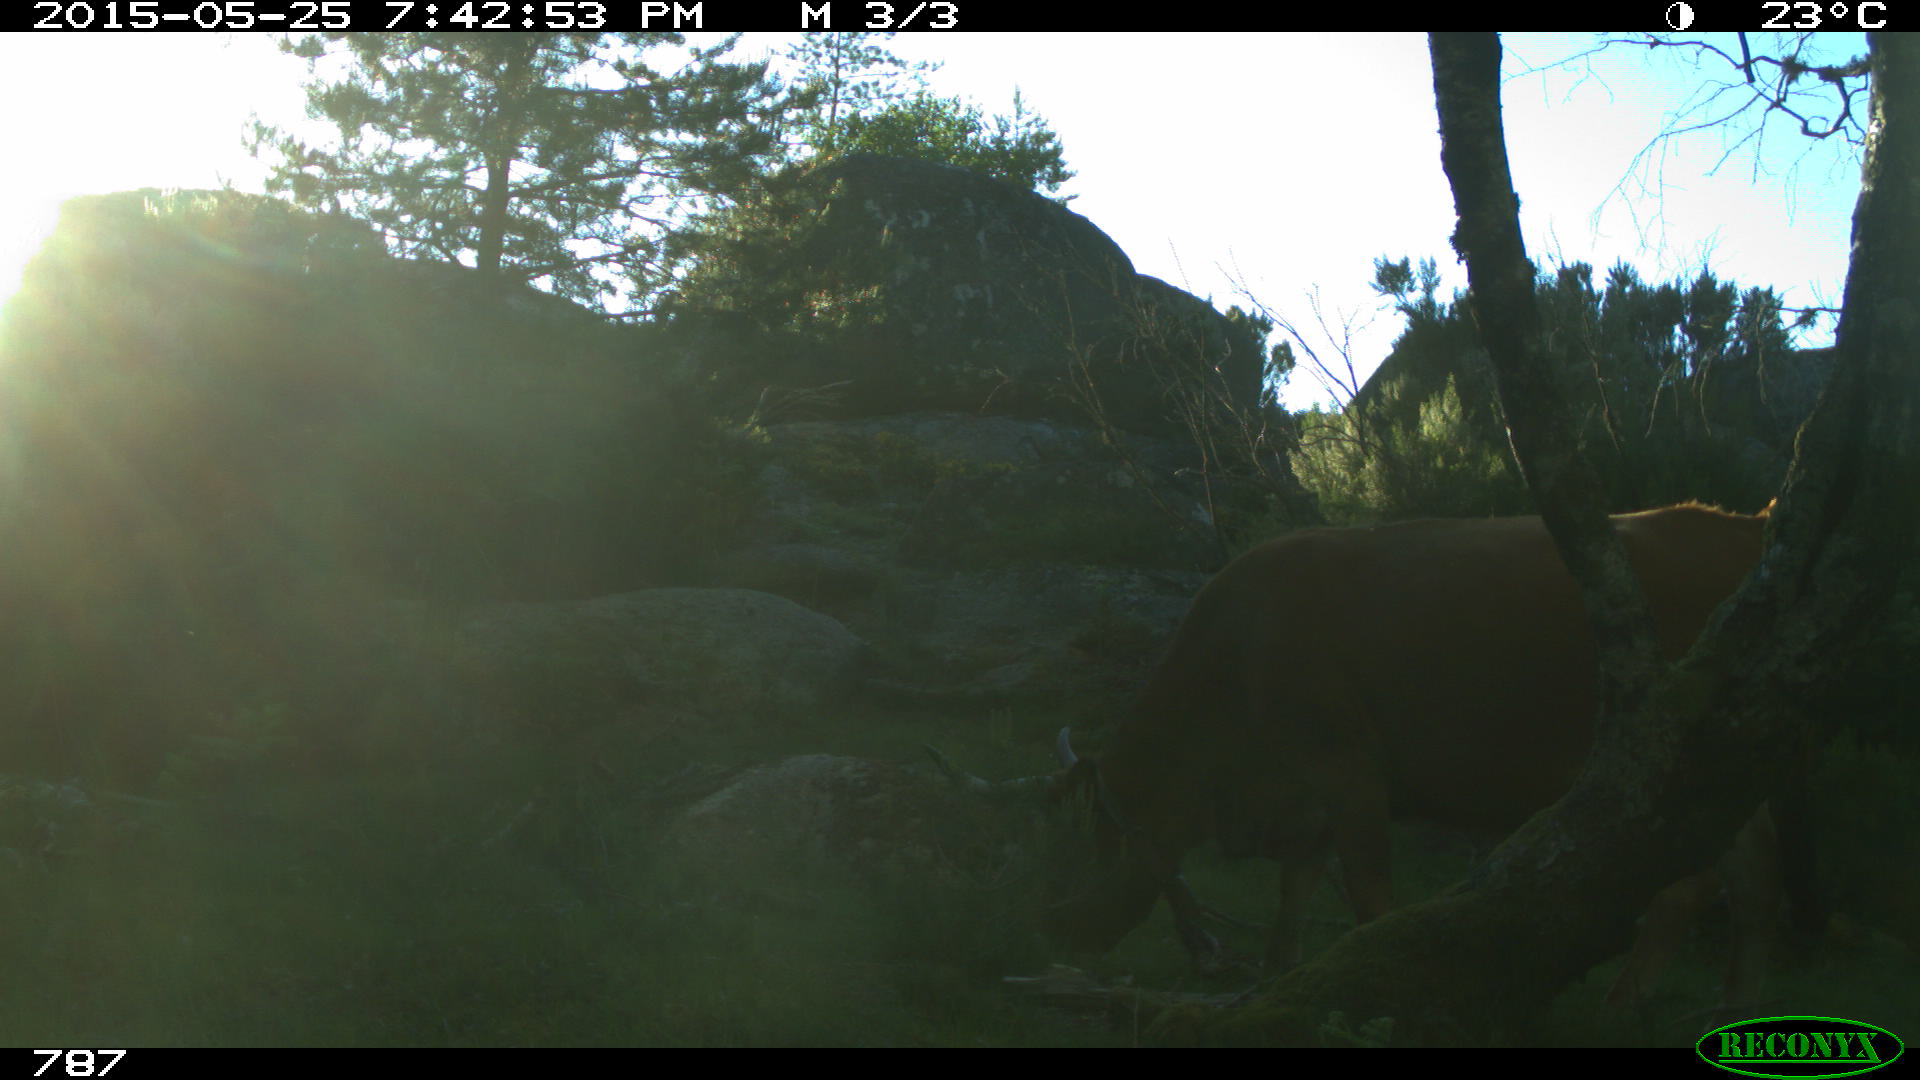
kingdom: Animalia
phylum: Chordata
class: Mammalia
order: Artiodactyla
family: Bovidae
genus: Bos
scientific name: Bos taurus
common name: Domesticated cattle
